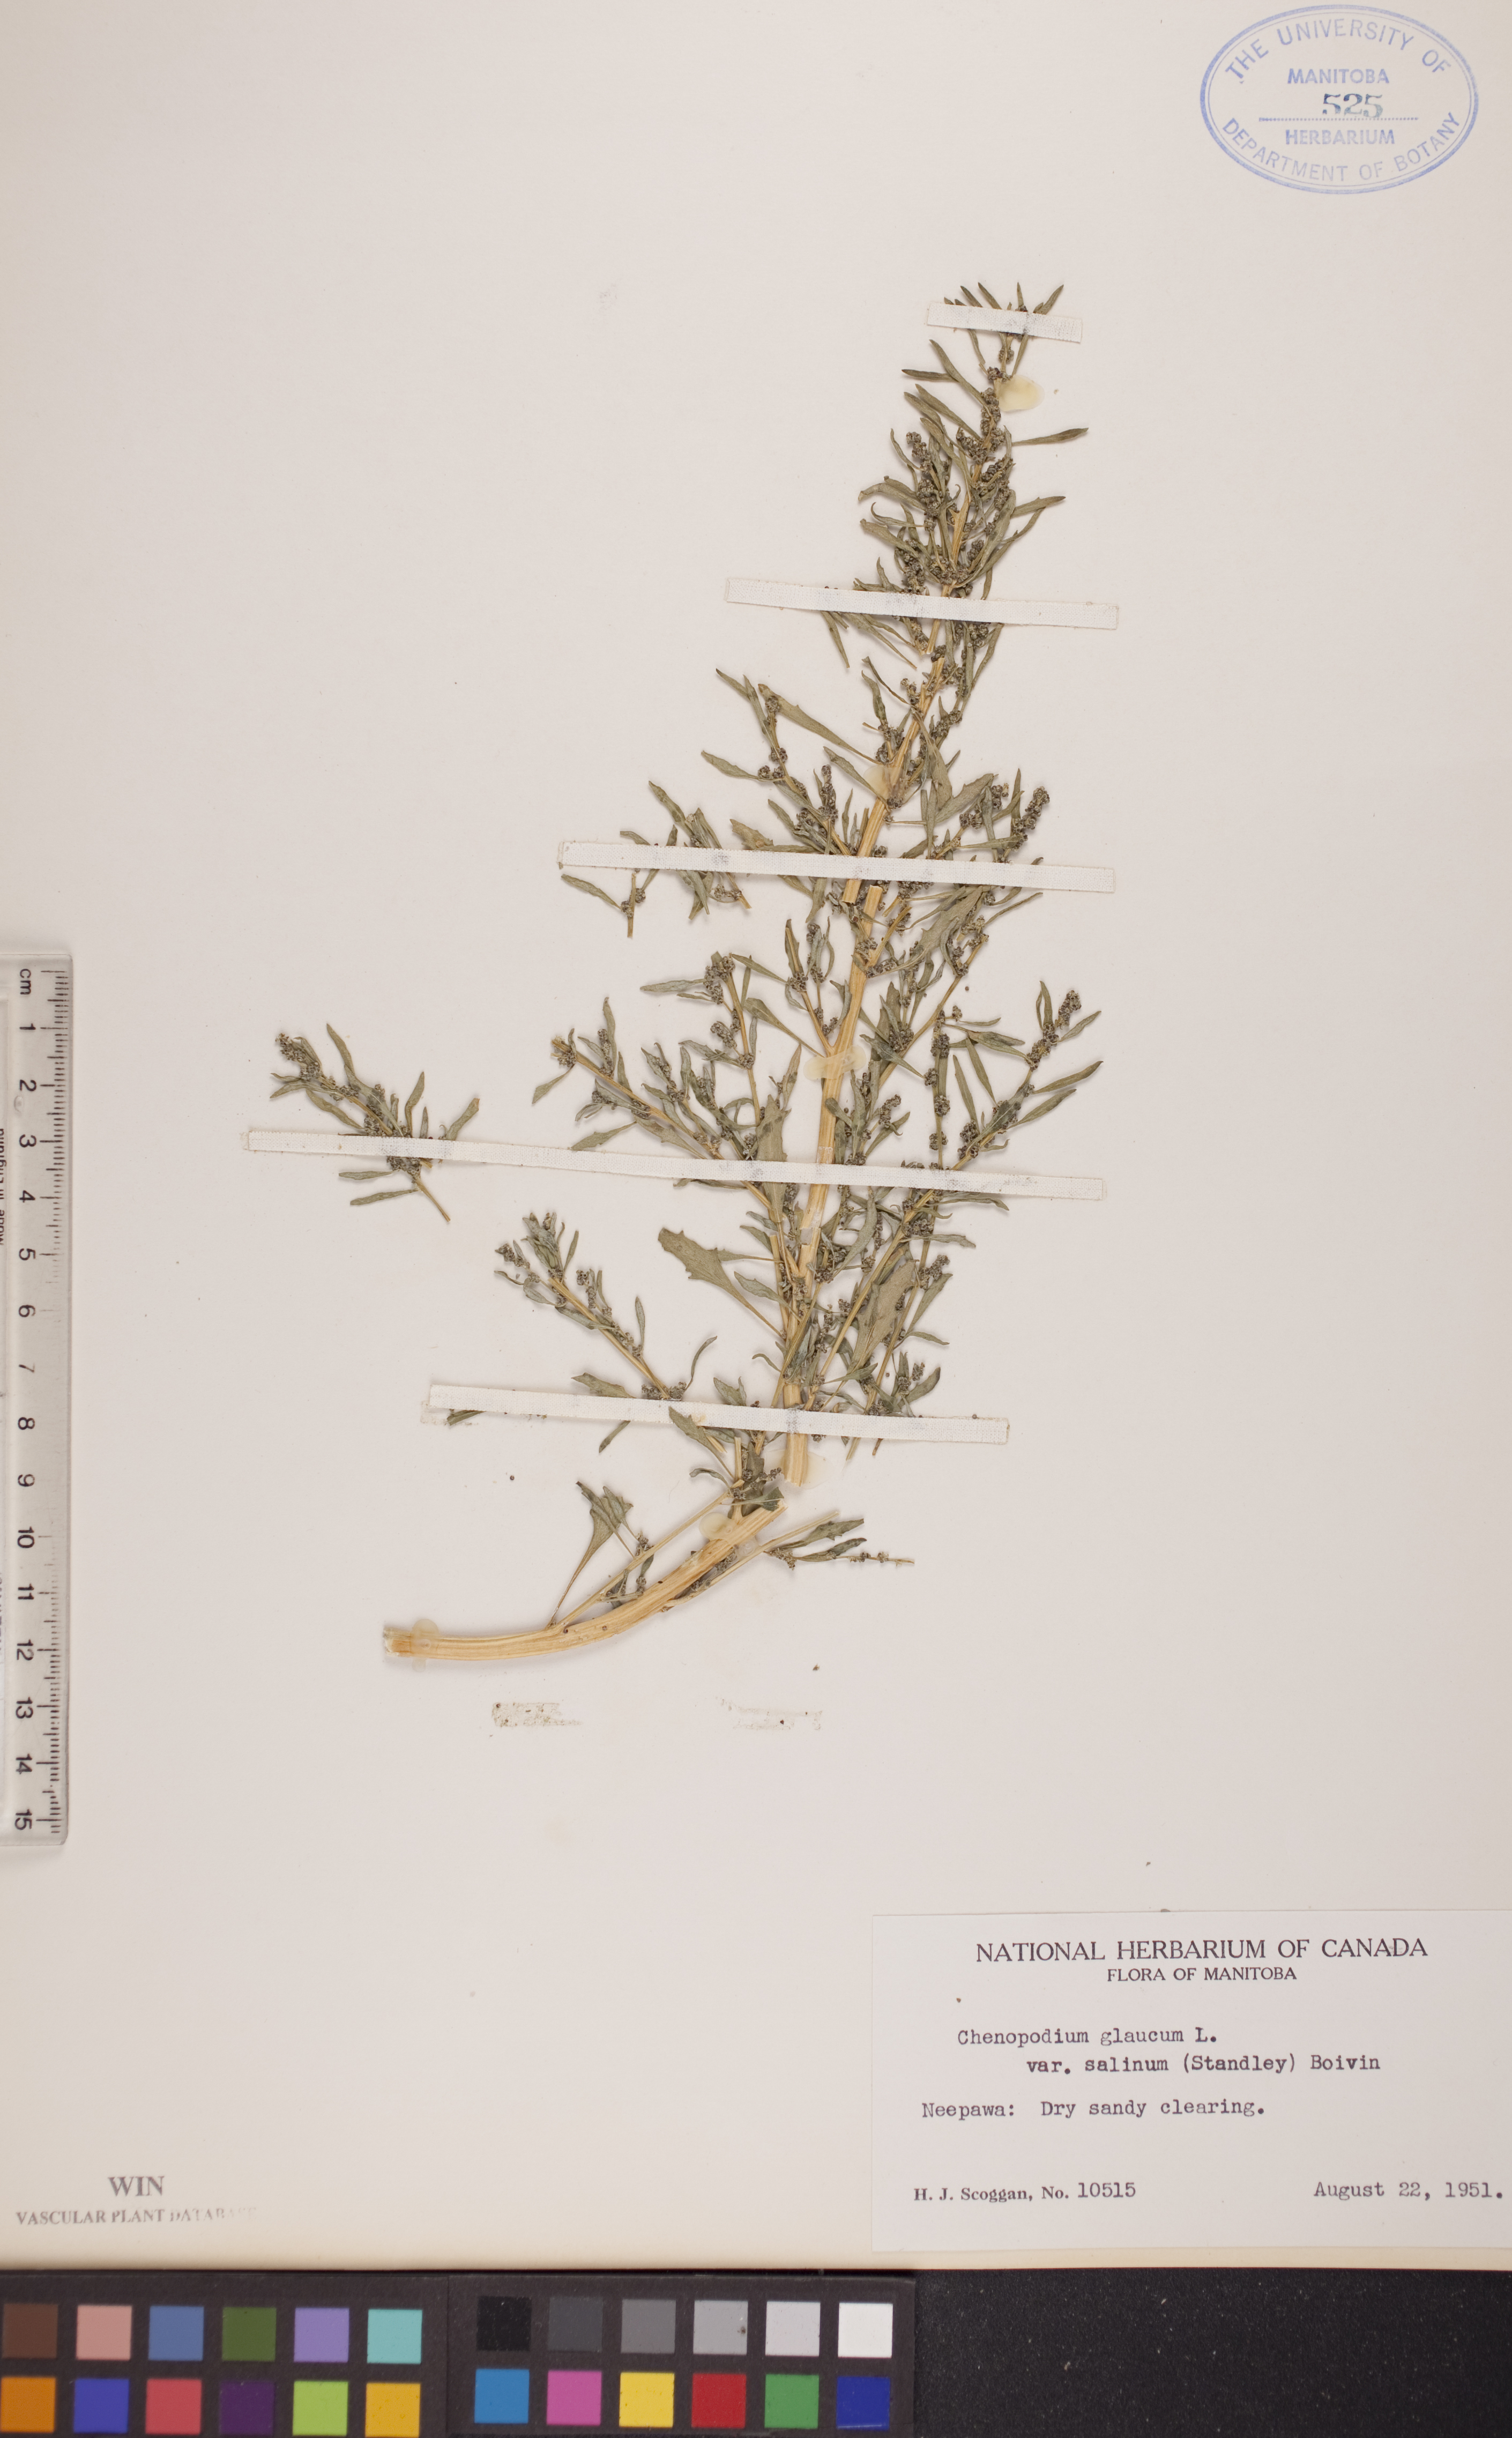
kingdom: Plantae
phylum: Tracheophyta
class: Magnoliopsida
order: Caryophyllales
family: Amaranthaceae
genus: Oxybasis
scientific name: Oxybasis salina
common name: Rocky mountain goosefoot
